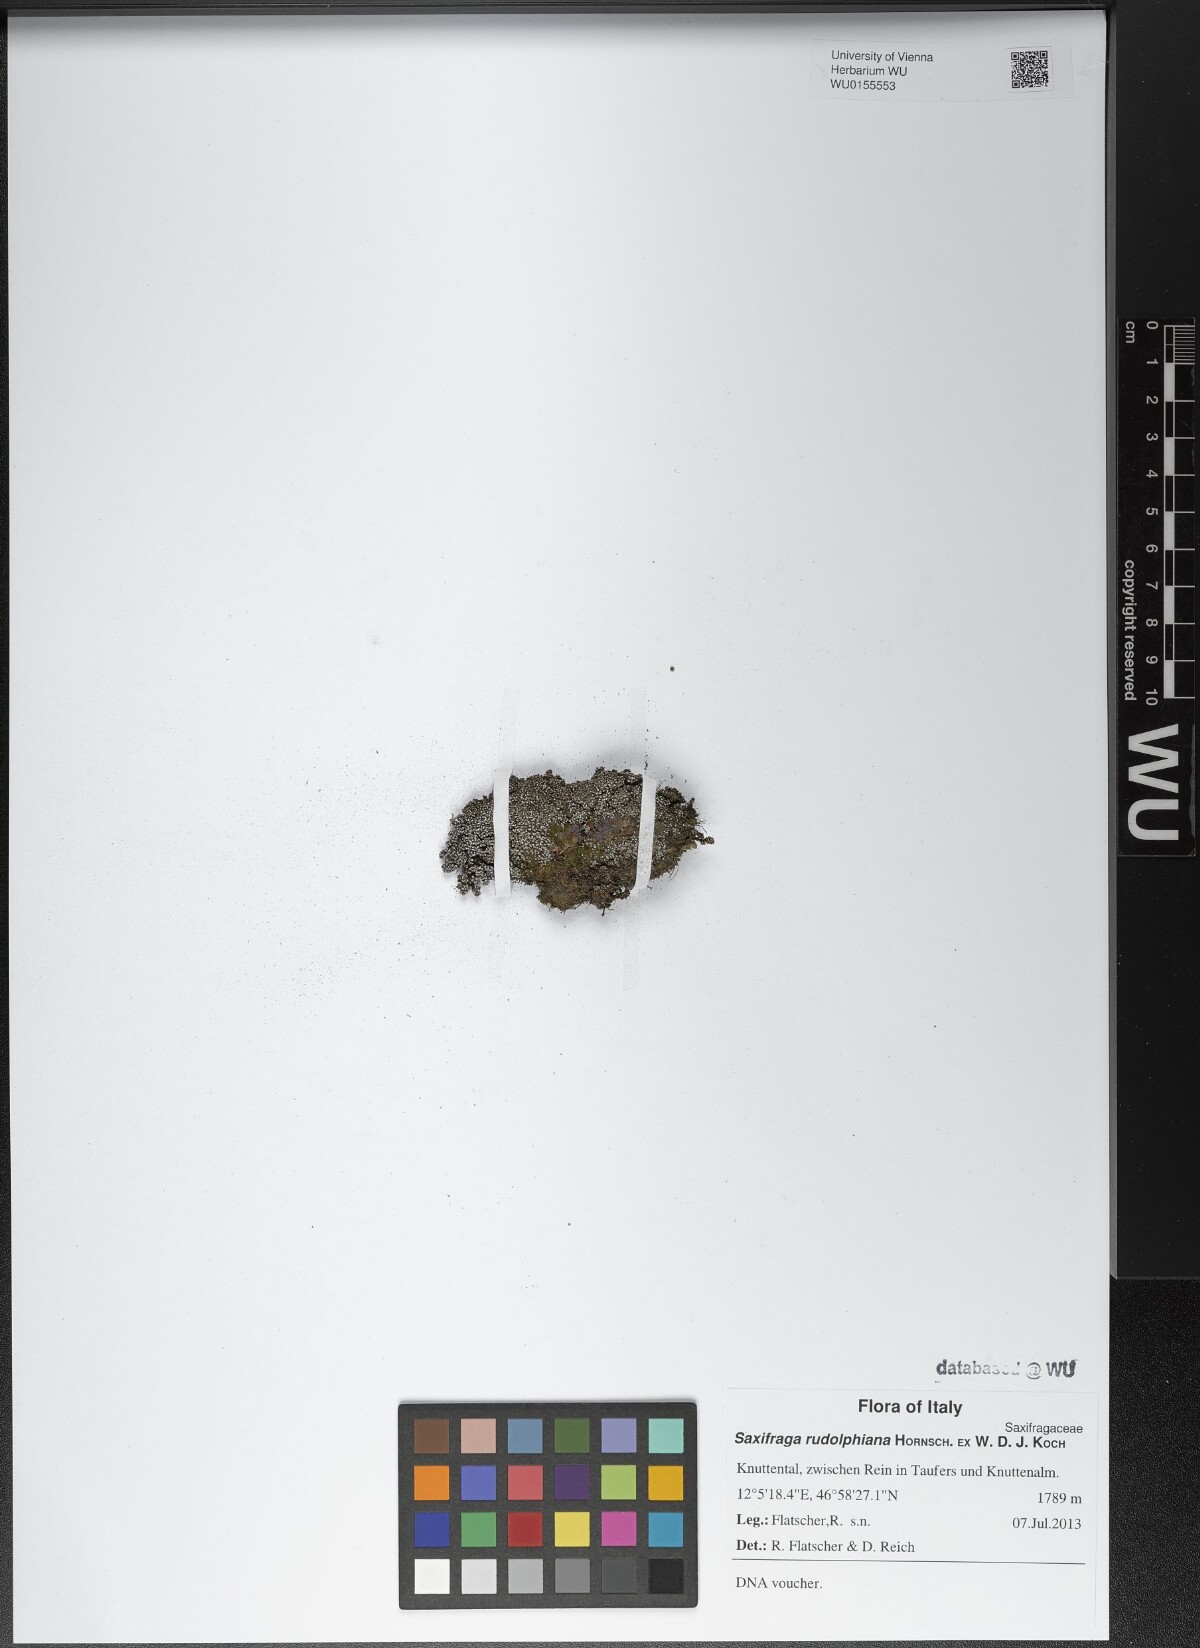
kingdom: Plantae
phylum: Tracheophyta
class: Magnoliopsida
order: Saxifragales
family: Saxifragaceae
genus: Saxifraga
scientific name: Saxifraga oppositifolia
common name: Purple saxifrage
